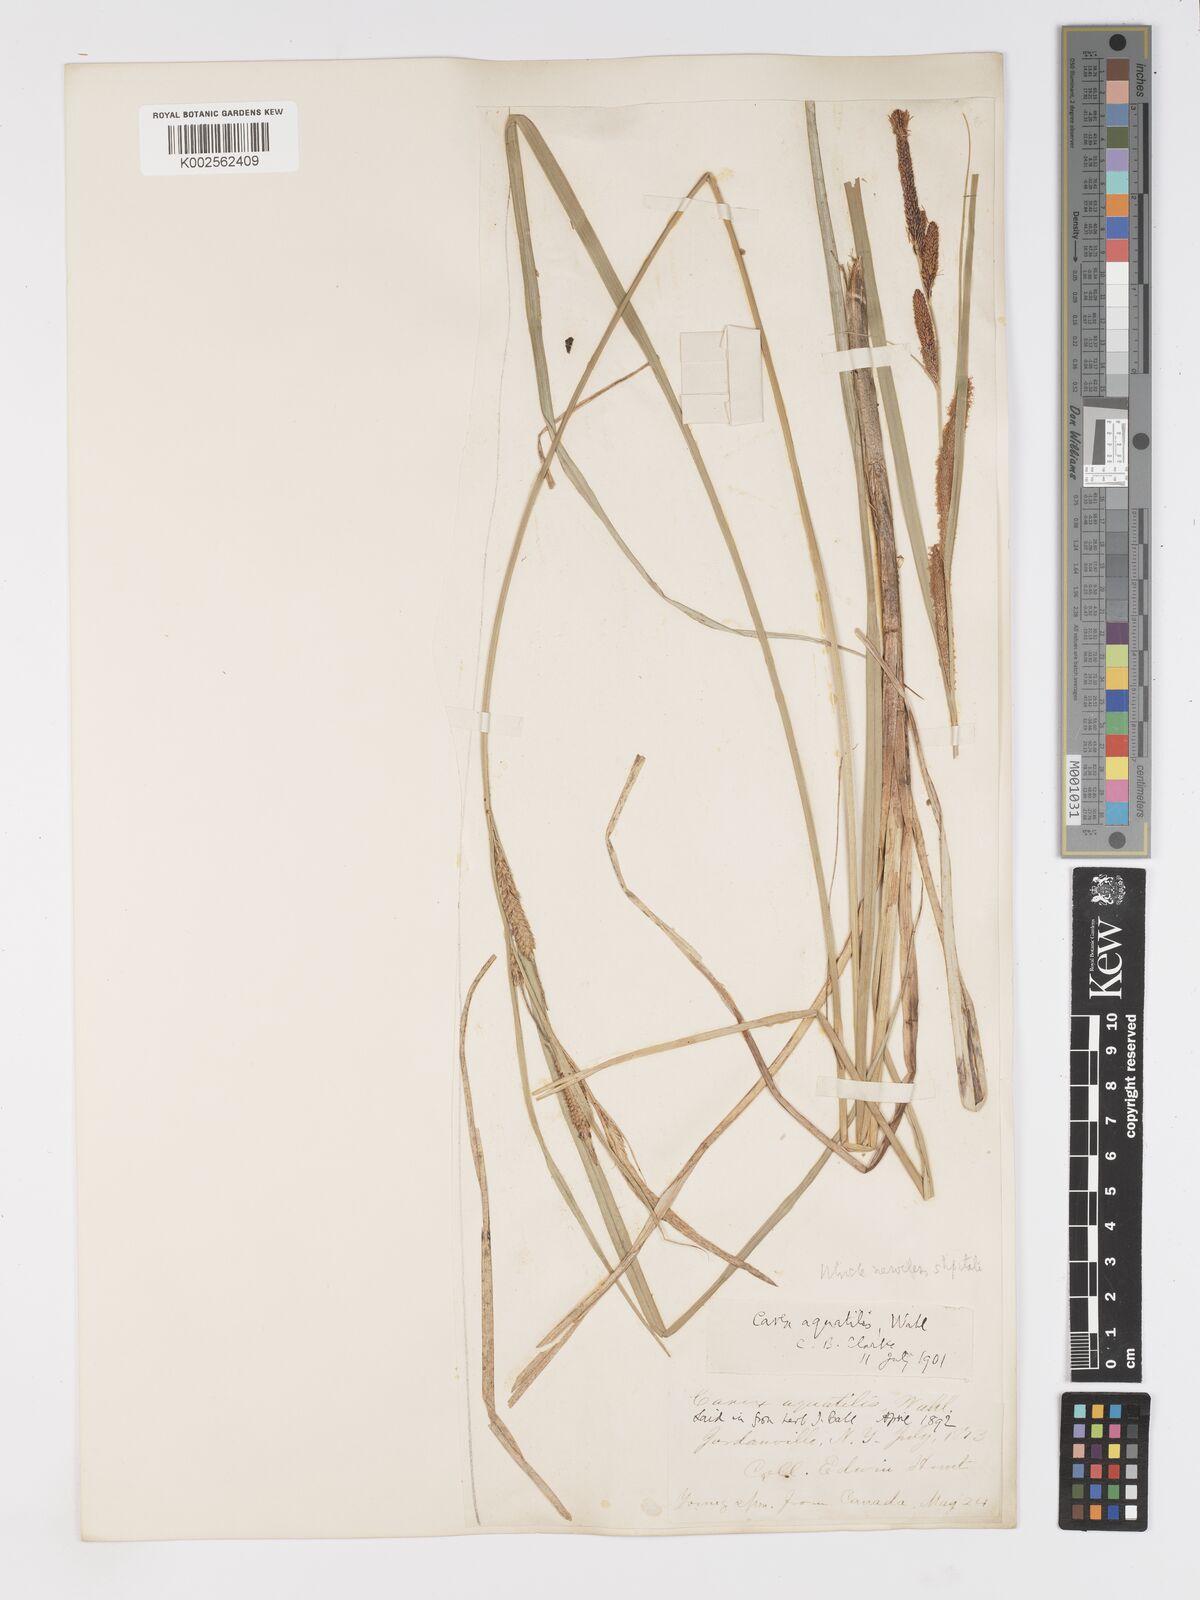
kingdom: Plantae
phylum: Tracheophyta
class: Liliopsida
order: Poales
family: Cyperaceae
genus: Carex
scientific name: Carex aquatilis
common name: Water sedge
